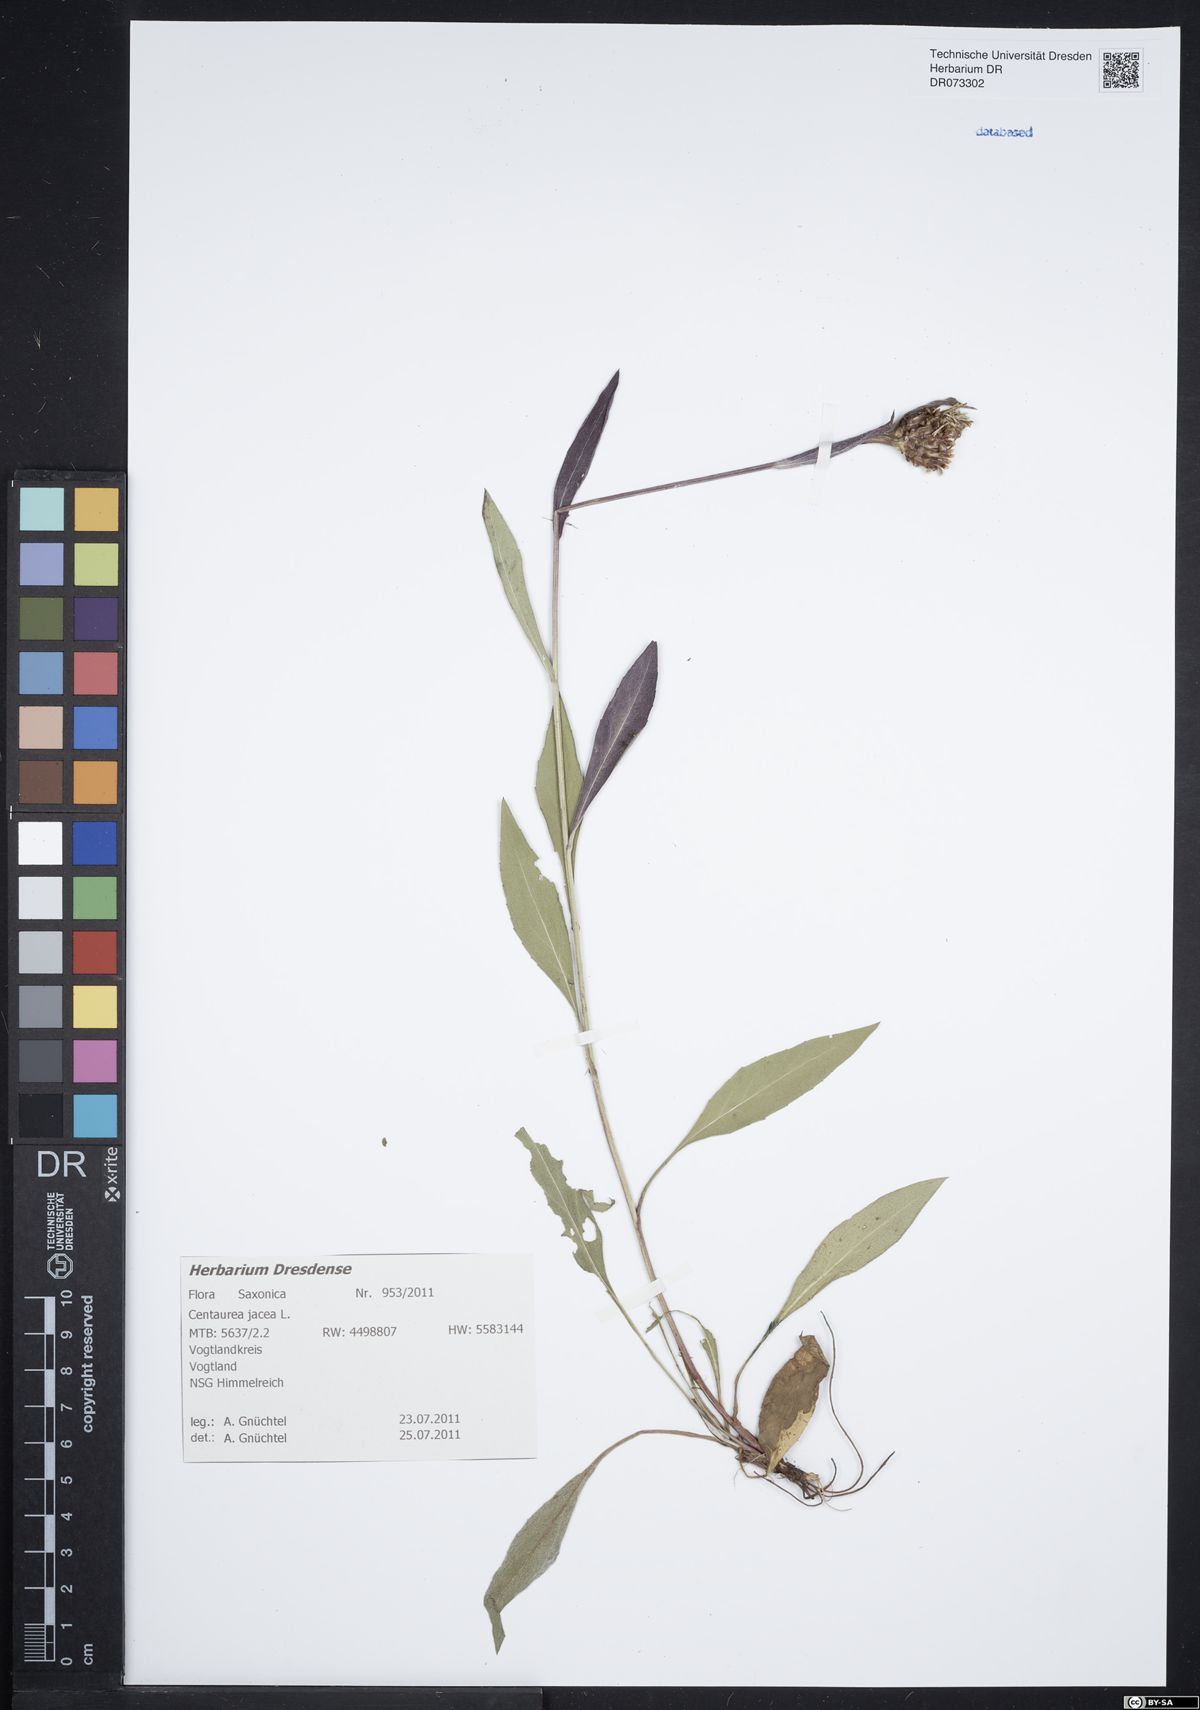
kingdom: Plantae
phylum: Tracheophyta
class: Magnoliopsida
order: Asterales
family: Asteraceae
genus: Centaurea
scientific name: Centaurea jacea
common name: Brown knapweed
